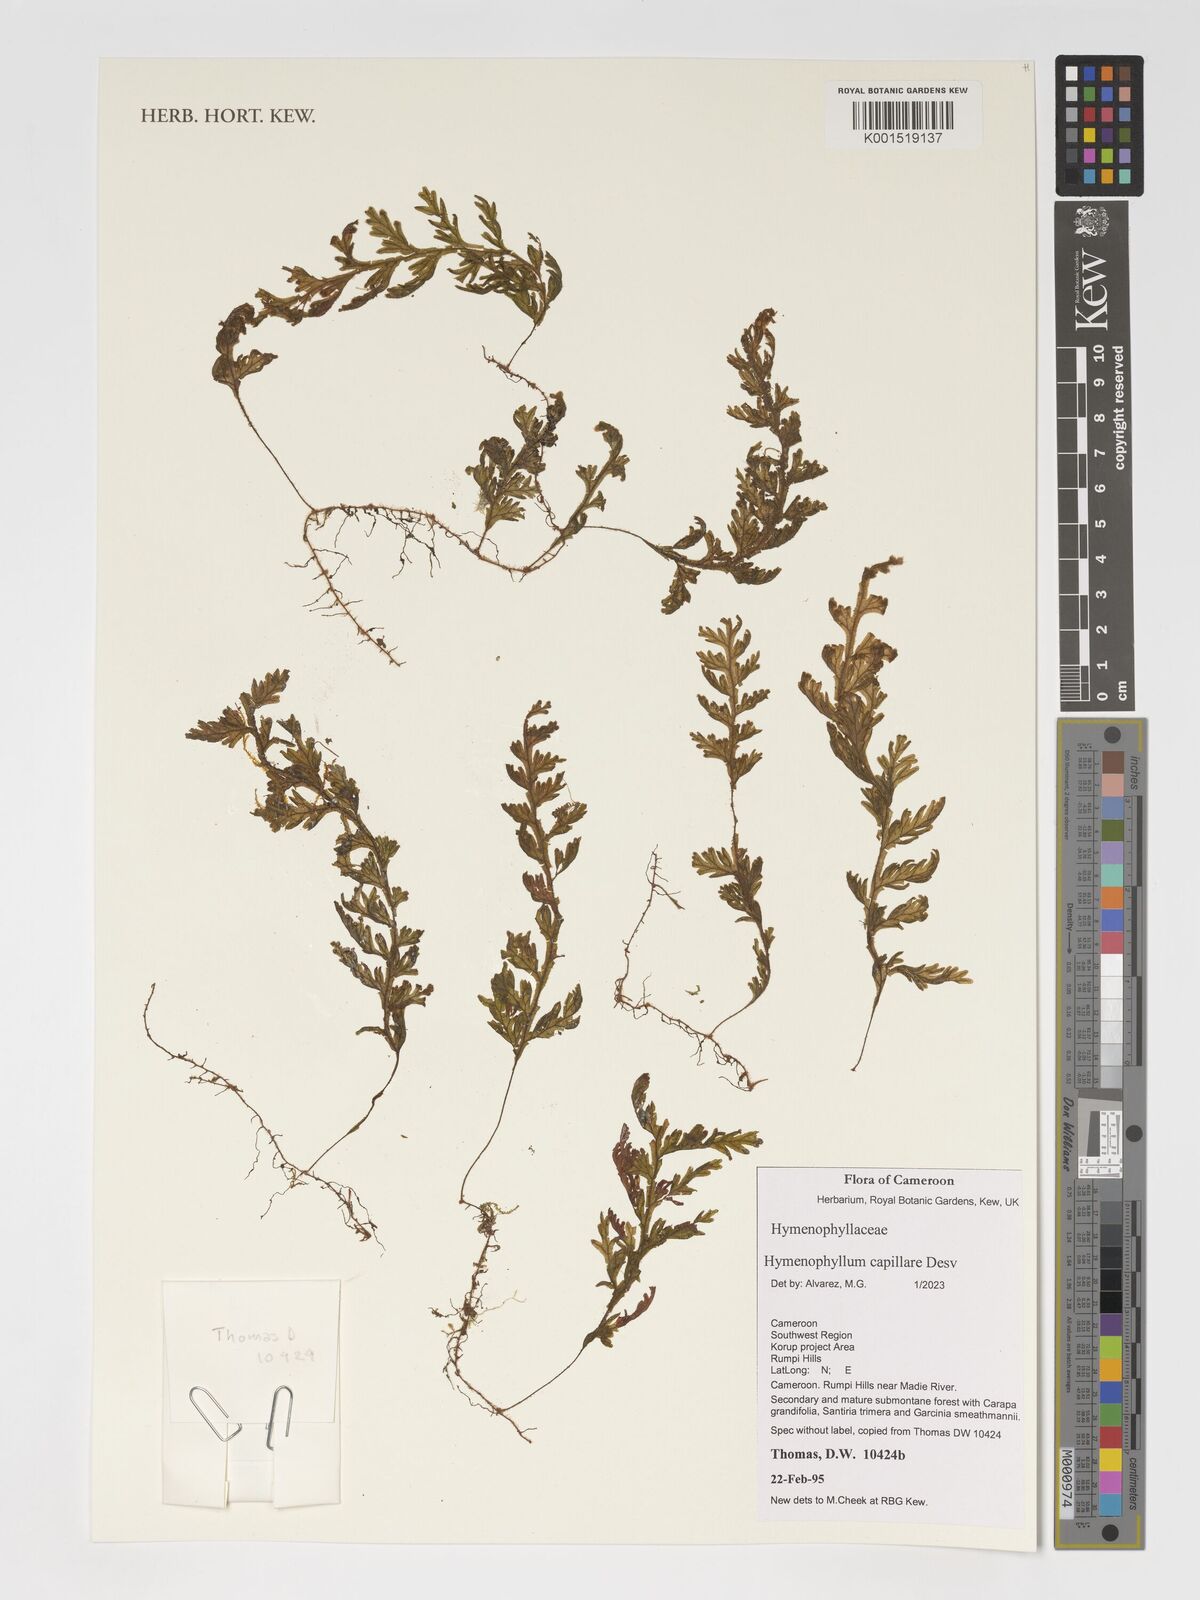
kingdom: Plantae
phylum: Tracheophyta
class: Polypodiopsida
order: Hymenophyllales
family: Hymenophyllaceae
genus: Hymenophyllum
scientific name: Hymenophyllum capillare
